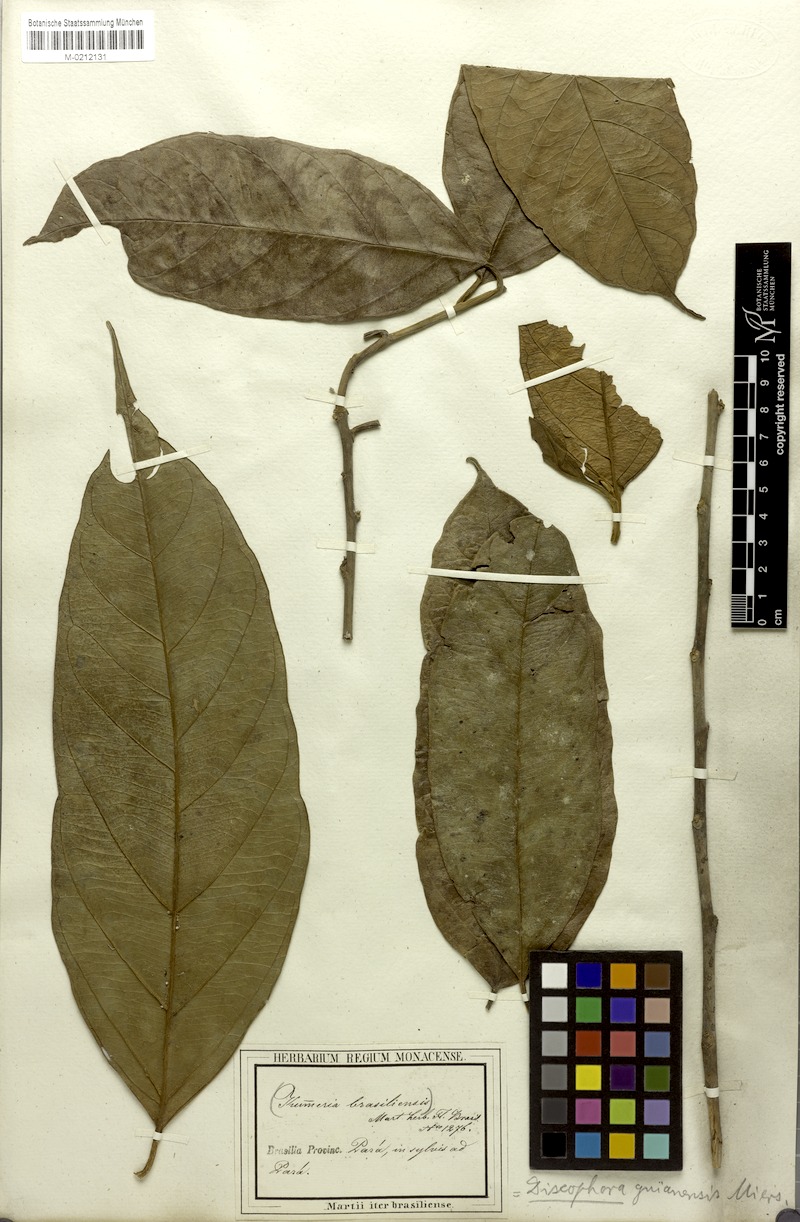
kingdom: Plantae
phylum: Tracheophyta
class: Magnoliopsida
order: Cardiopteridales
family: Stemonuraceae
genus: Discophora
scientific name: Discophora guianensis
